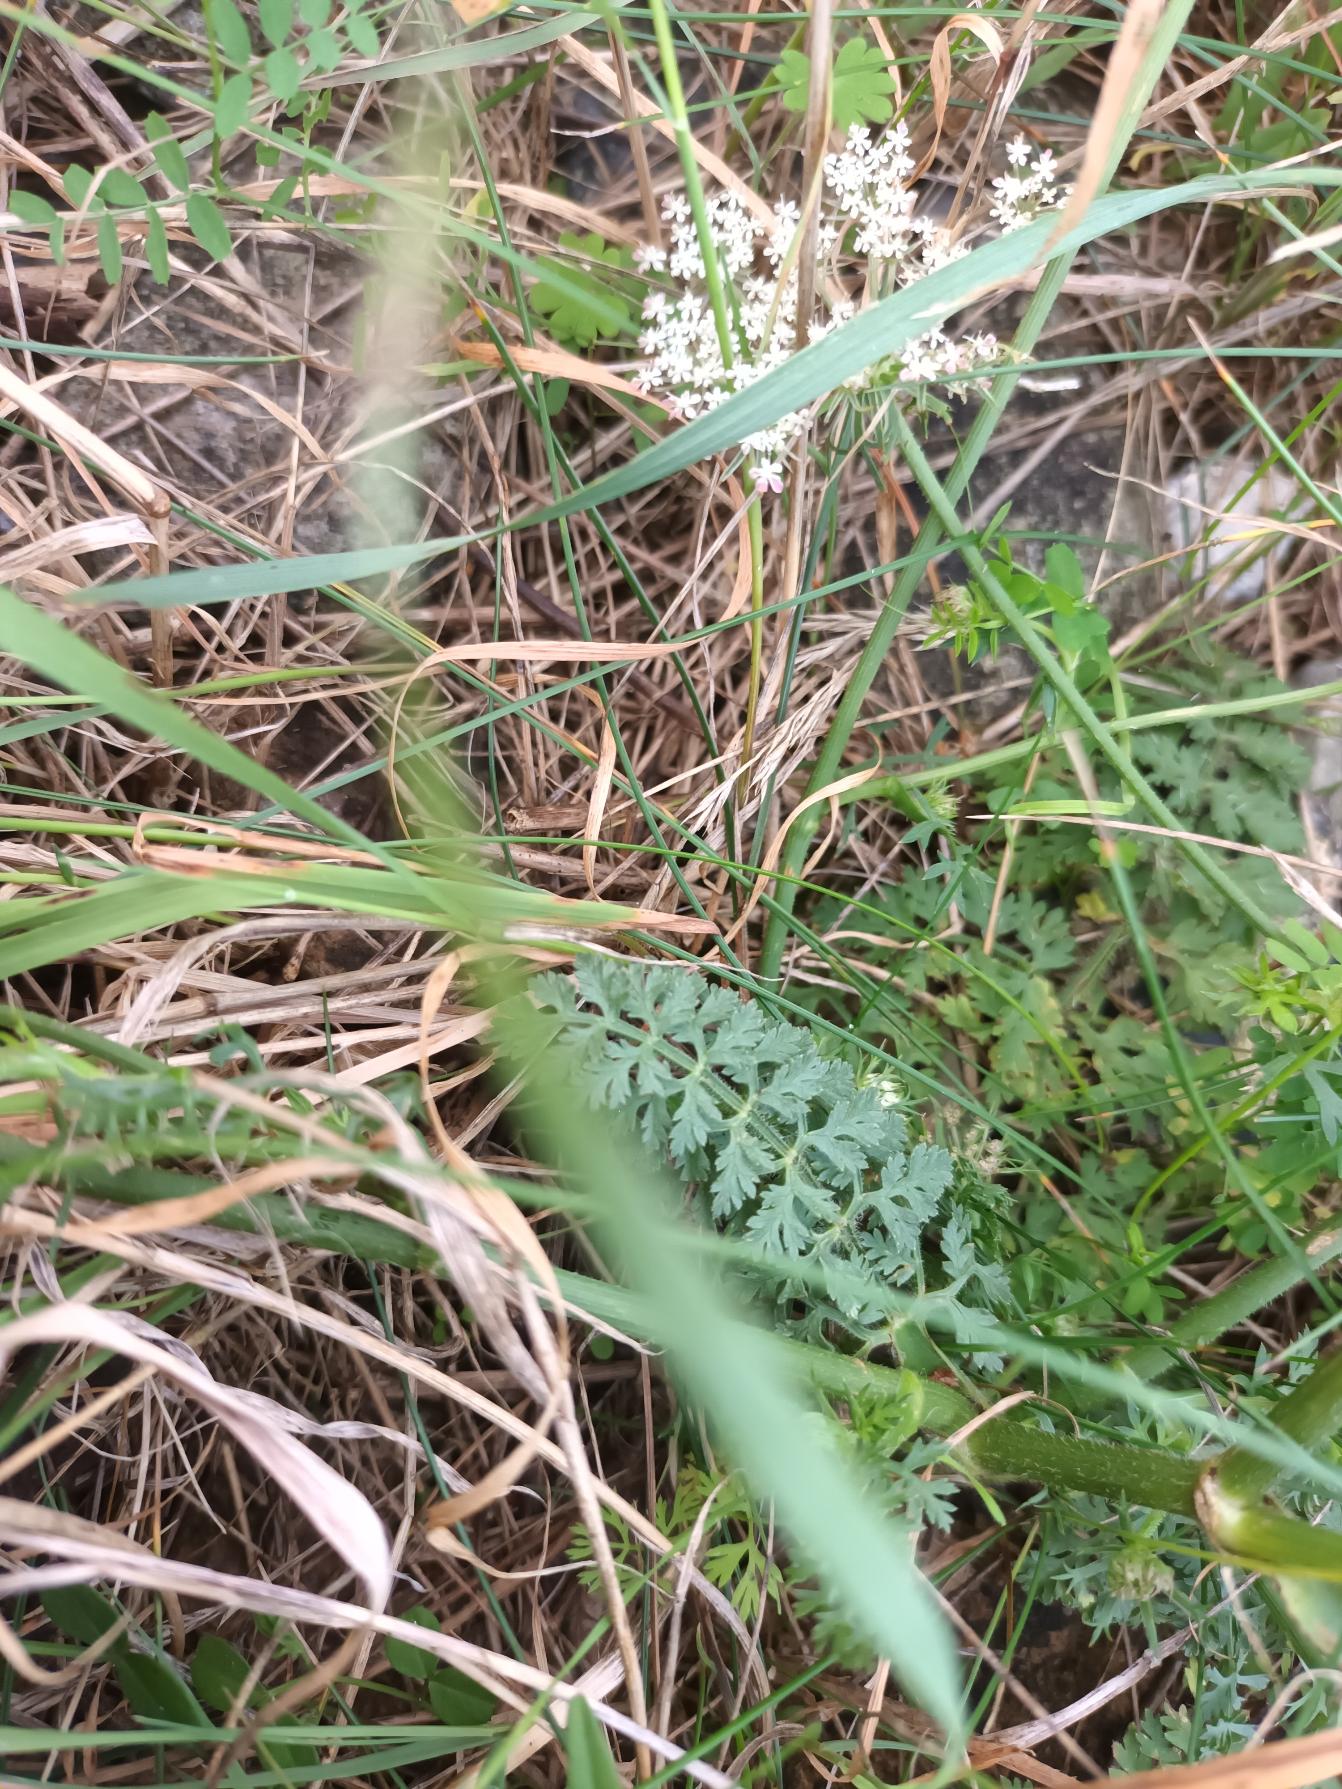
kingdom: Plantae
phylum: Tracheophyta
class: Magnoliopsida
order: Apiales
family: Apiaceae
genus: Daucus
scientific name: Daucus carota
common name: Strand-gulerod
